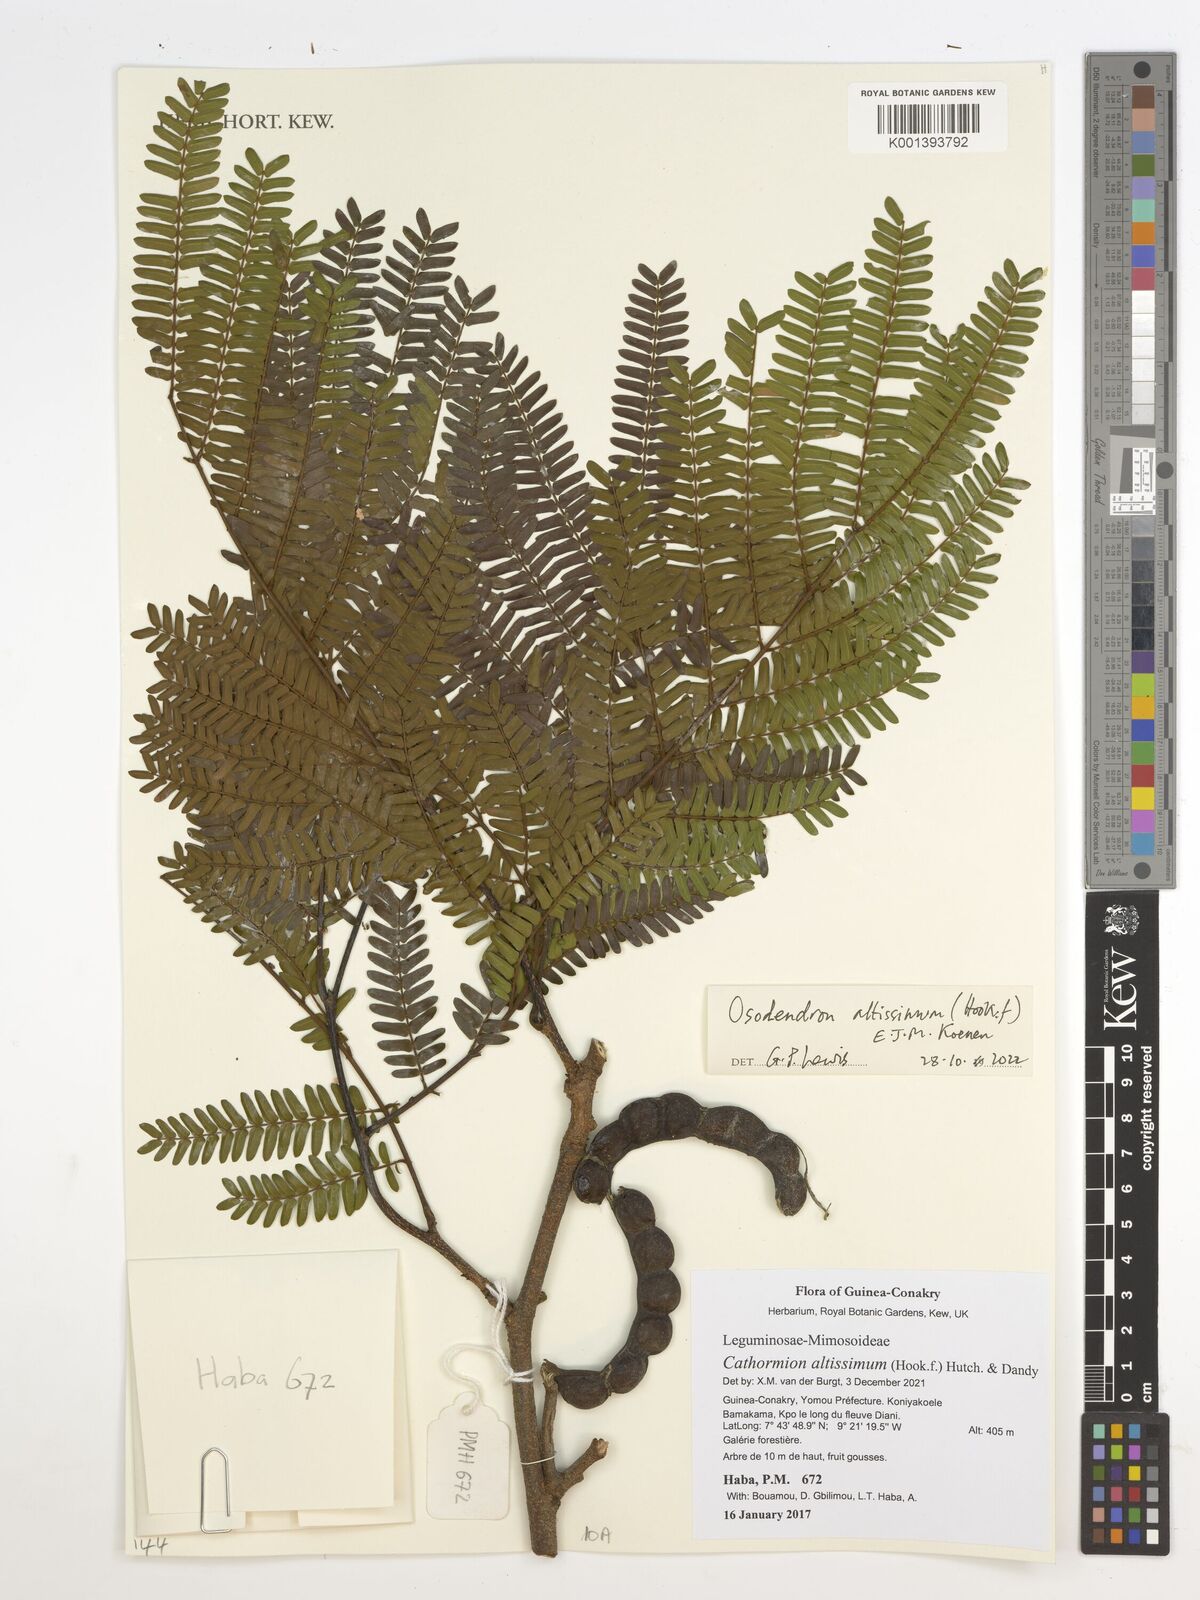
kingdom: Plantae
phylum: Tracheophyta
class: Magnoliopsida
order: Fabales
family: Fabaceae
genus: Albizia
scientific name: Albizia altissima
